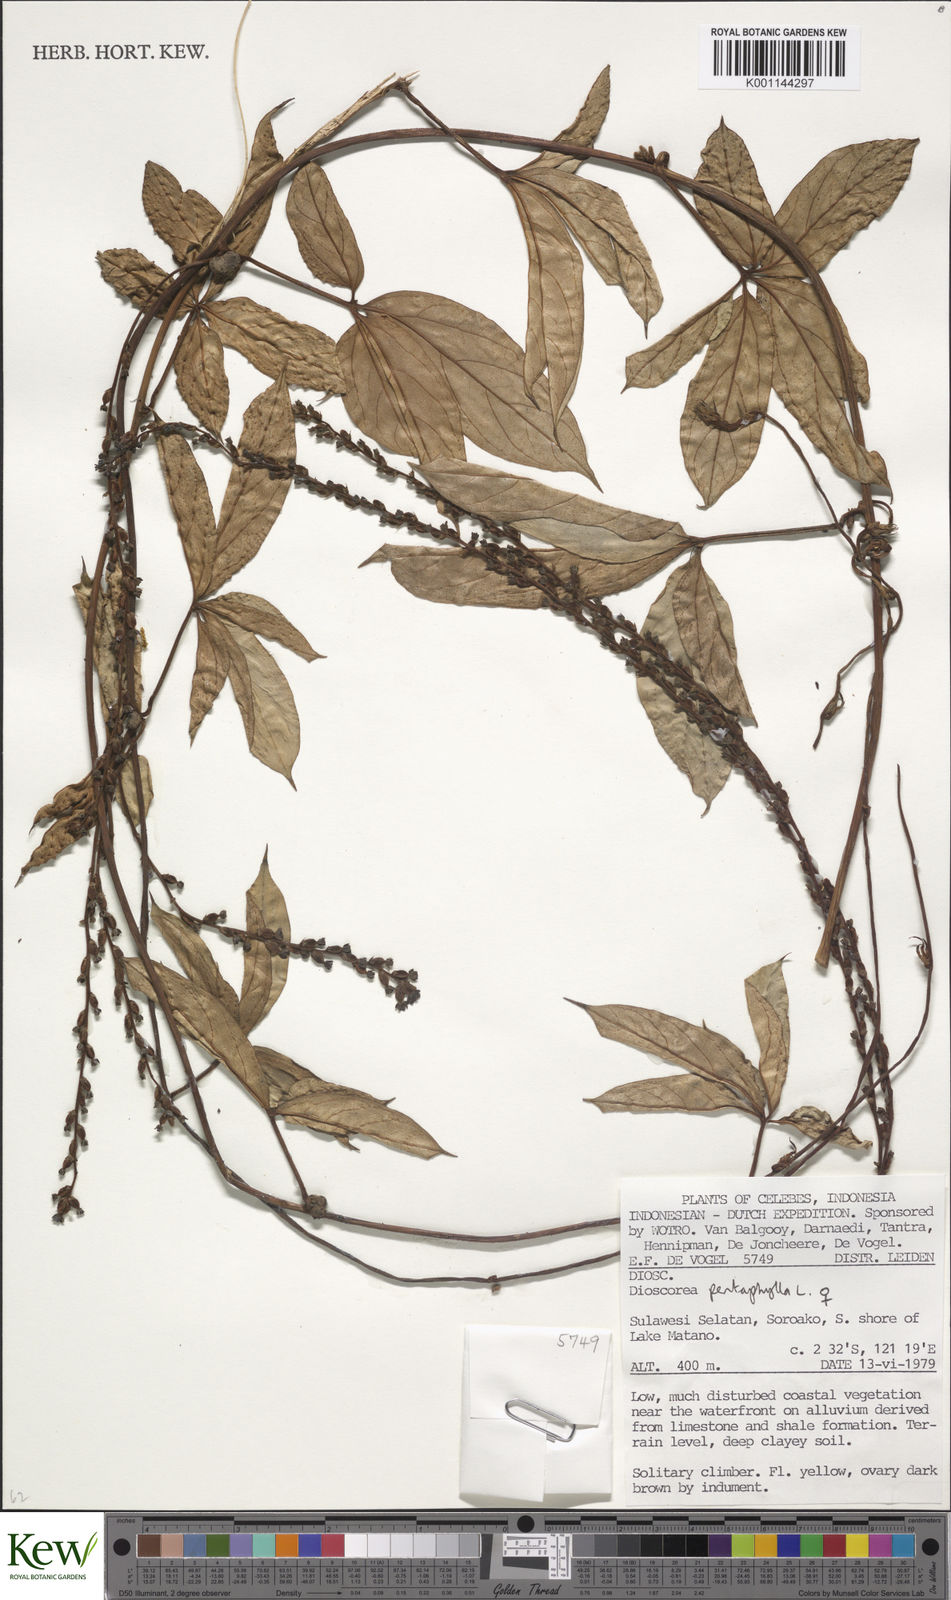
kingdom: Plantae
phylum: Tracheophyta
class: Liliopsida
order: Dioscoreales
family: Dioscoreaceae
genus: Dioscorea
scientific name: Dioscorea pentaphylla
